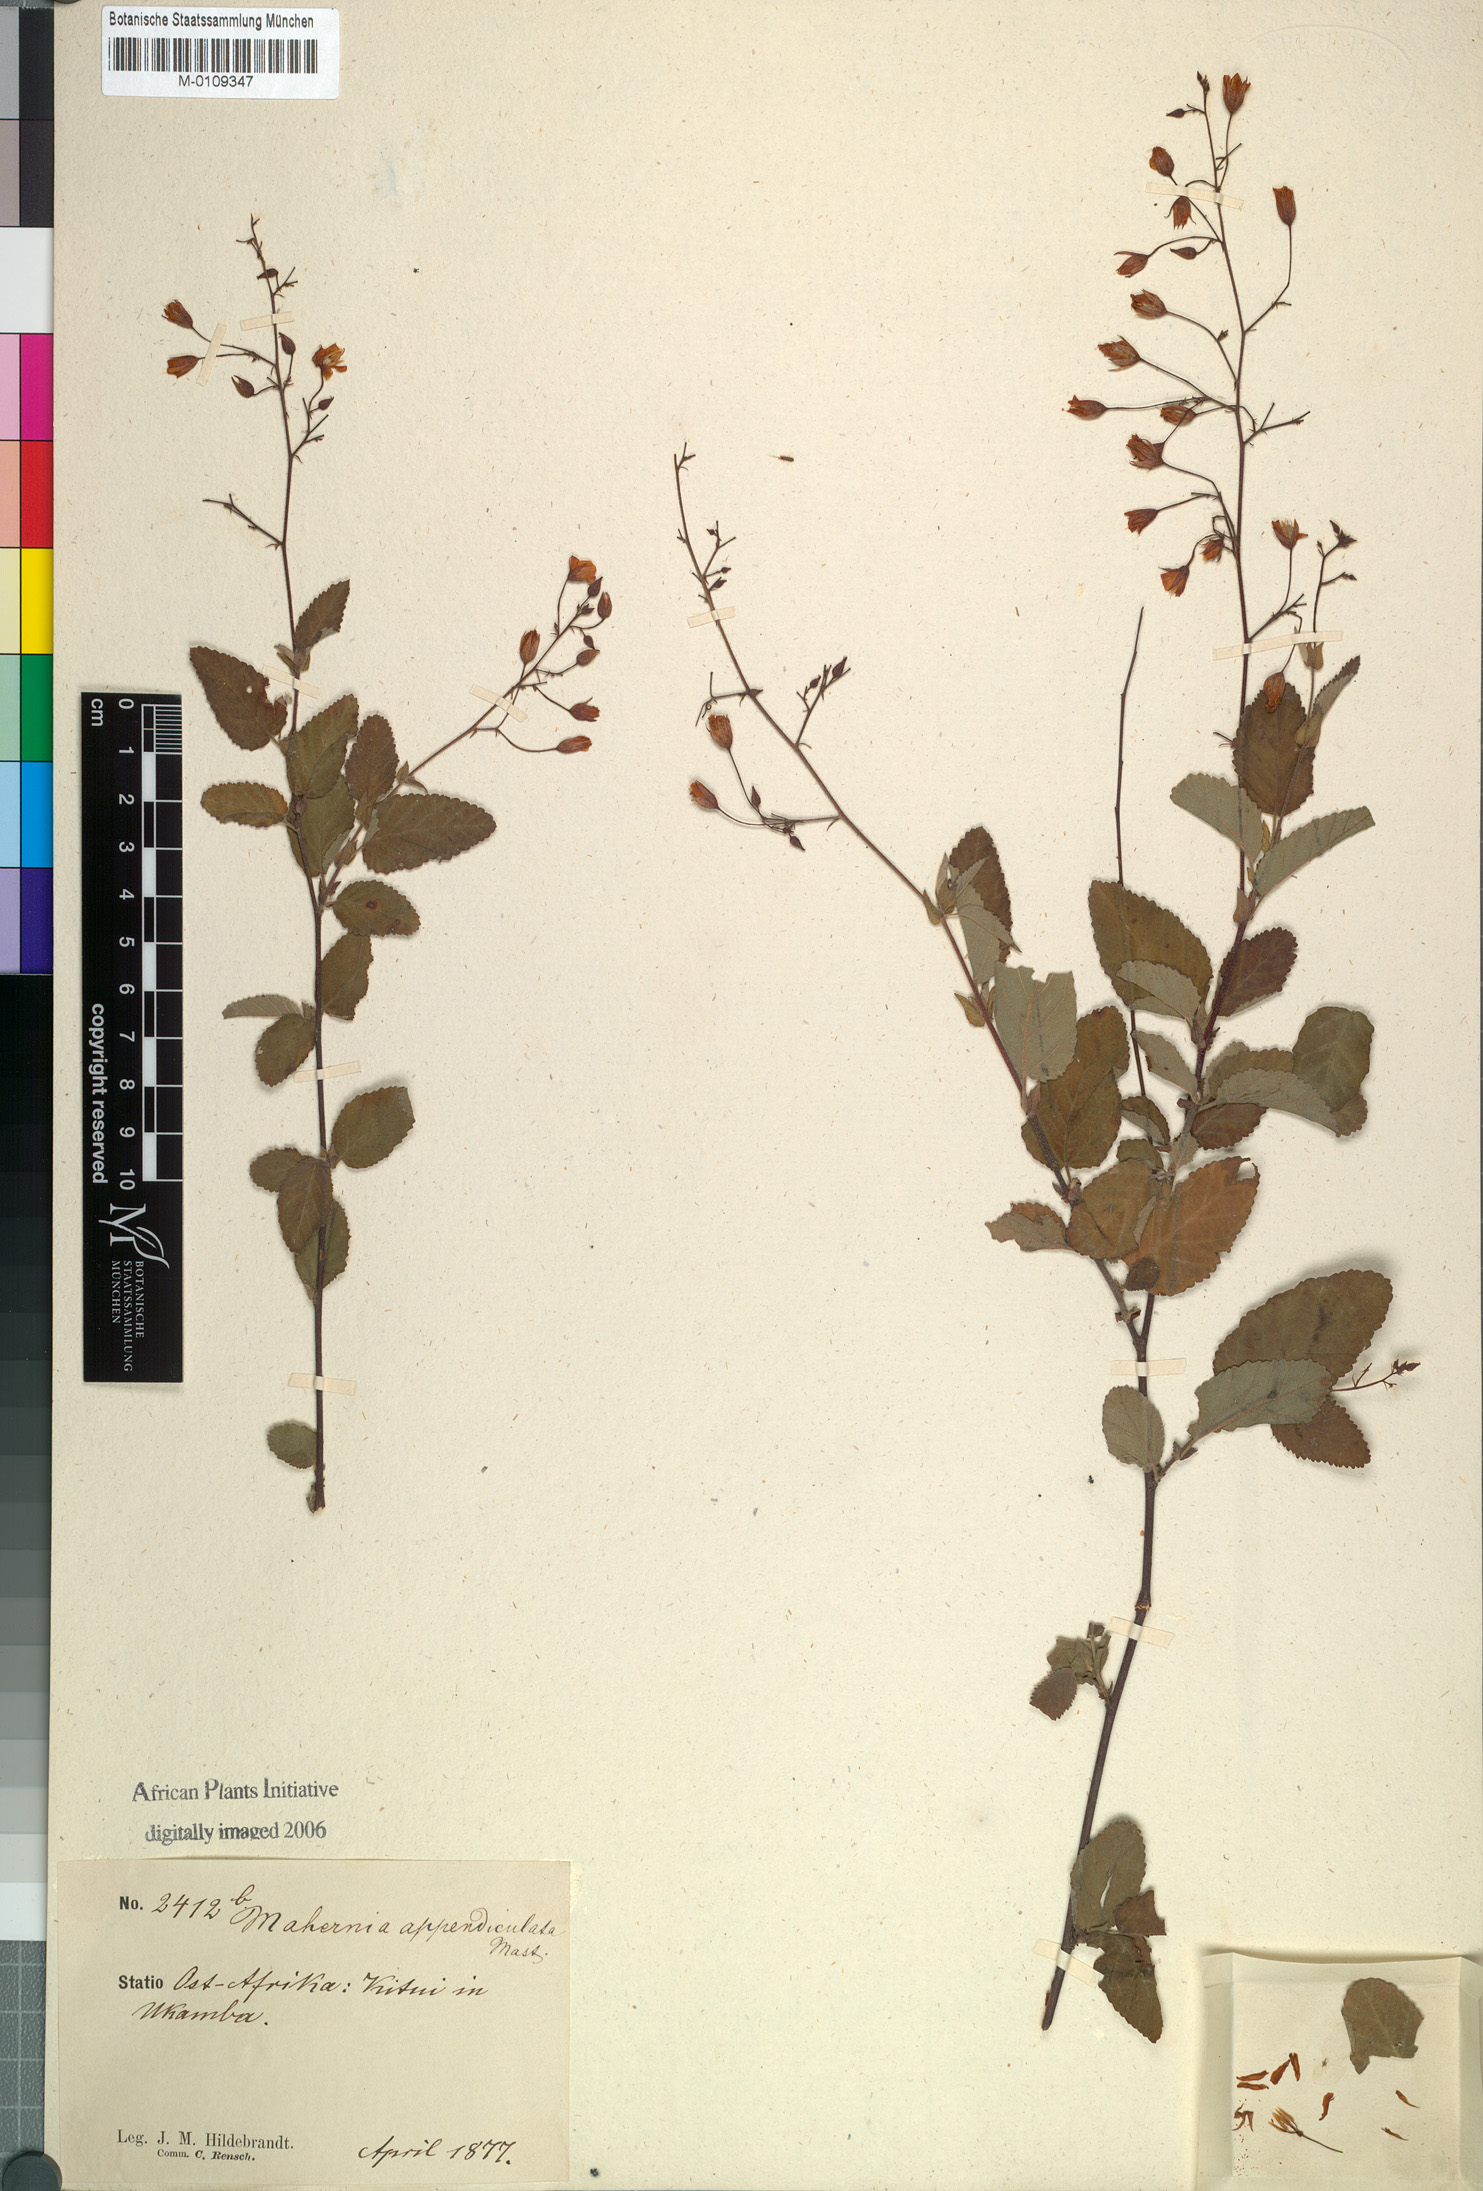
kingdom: Plantae
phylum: Tracheophyta
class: Magnoliopsida
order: Malvales
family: Malvaceae
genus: Hermannia
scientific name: Hermannia exappendiculata
